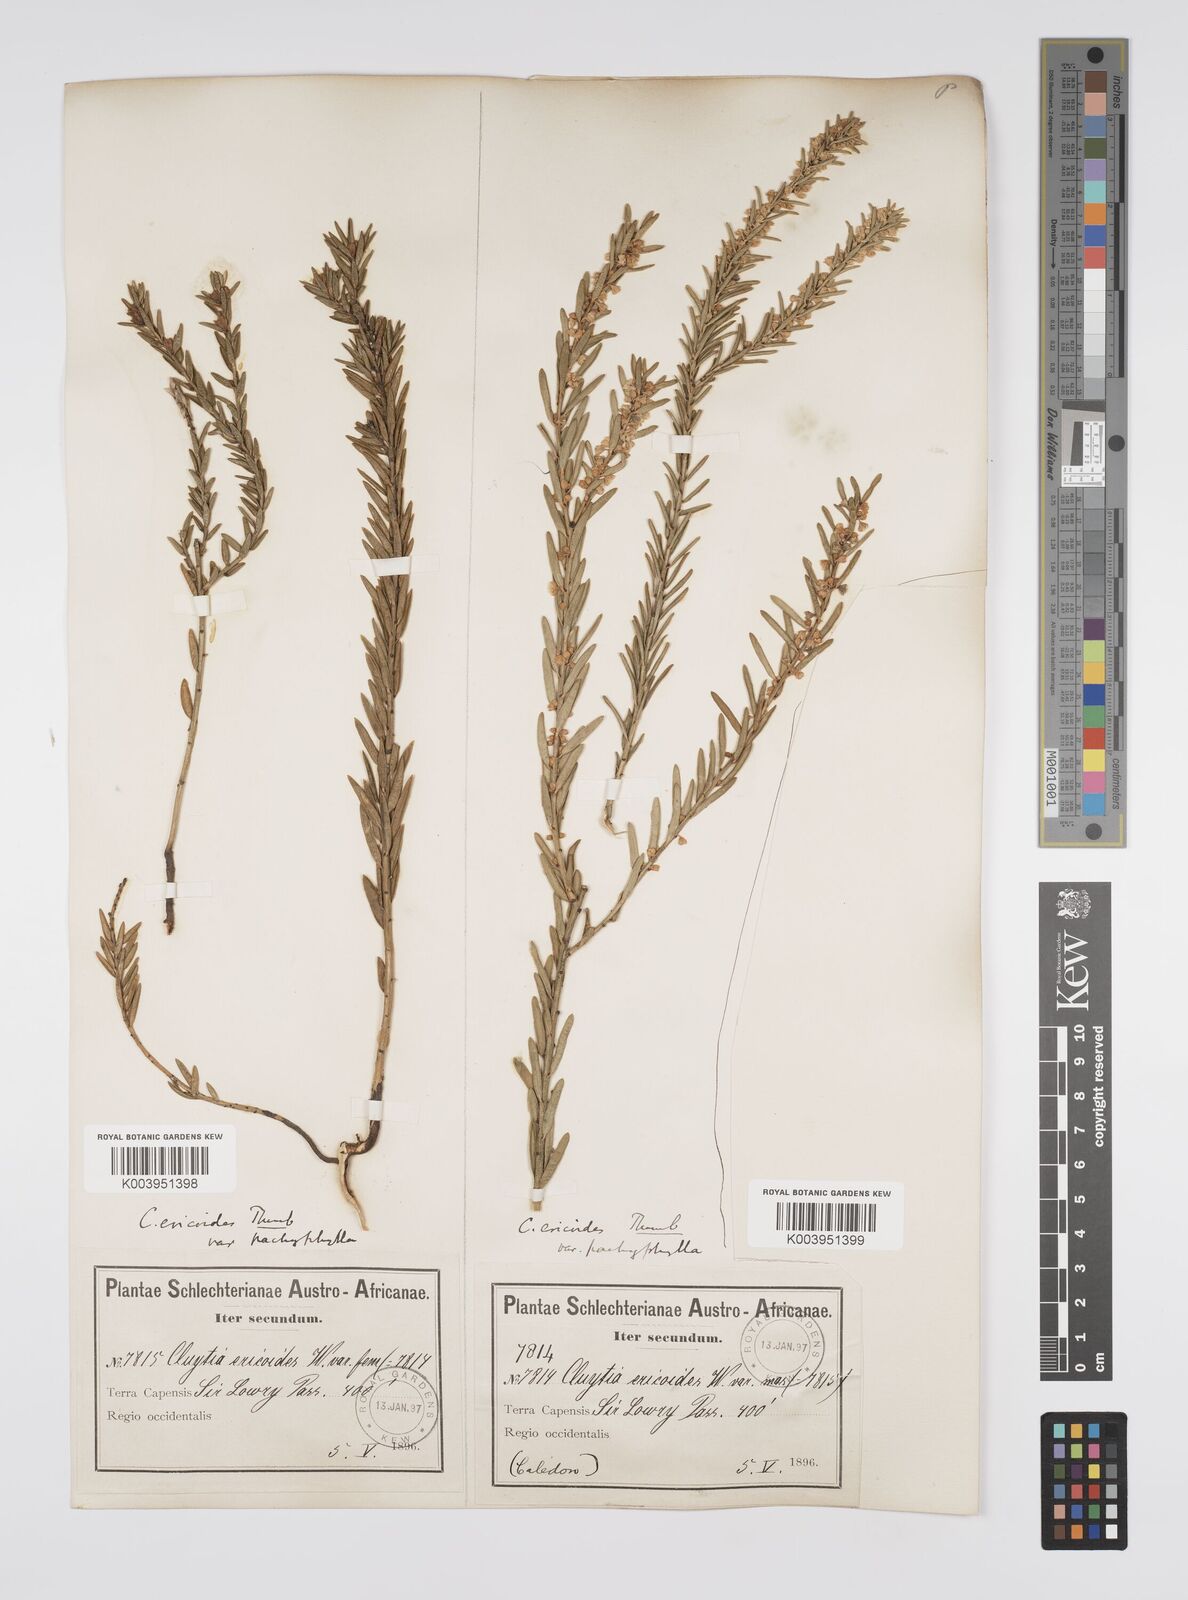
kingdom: Plantae
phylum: Tracheophyta
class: Magnoliopsida
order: Malpighiales
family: Peraceae
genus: Clutia
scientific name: Clutia
